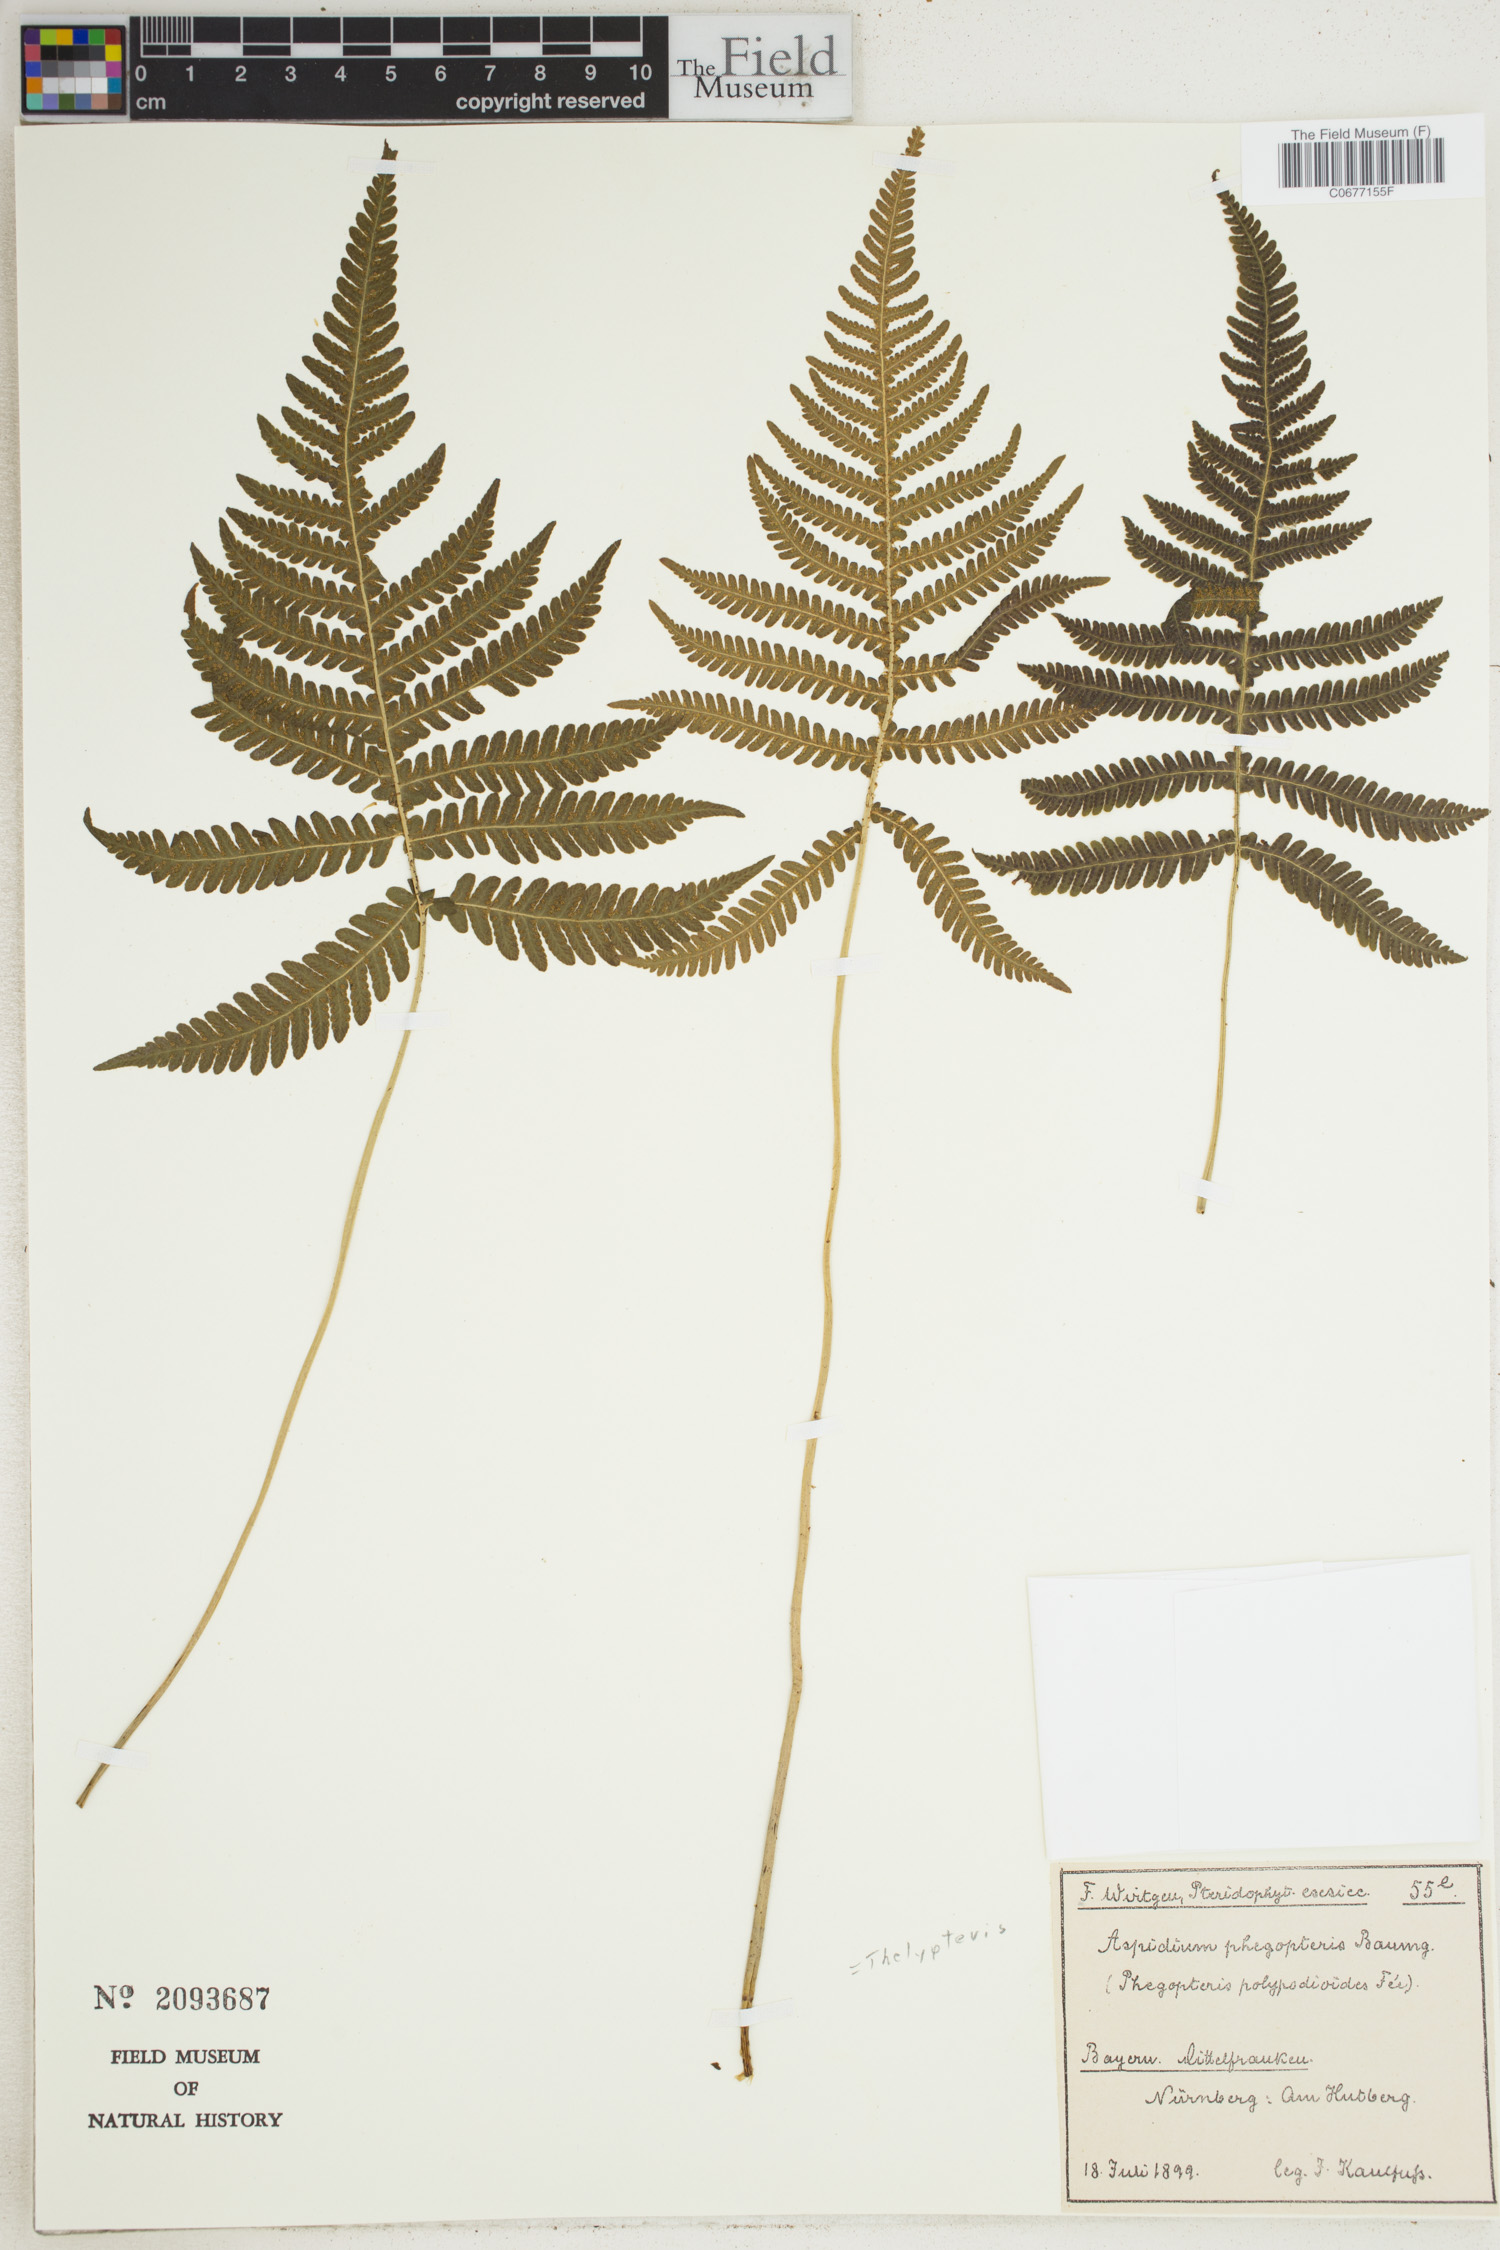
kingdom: Plantae
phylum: Tracheophyta
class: Polypodiopsida
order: Polypodiales
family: Thelypteridaceae
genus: Phegopteris
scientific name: Phegopteris connectilis
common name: Beech fern
